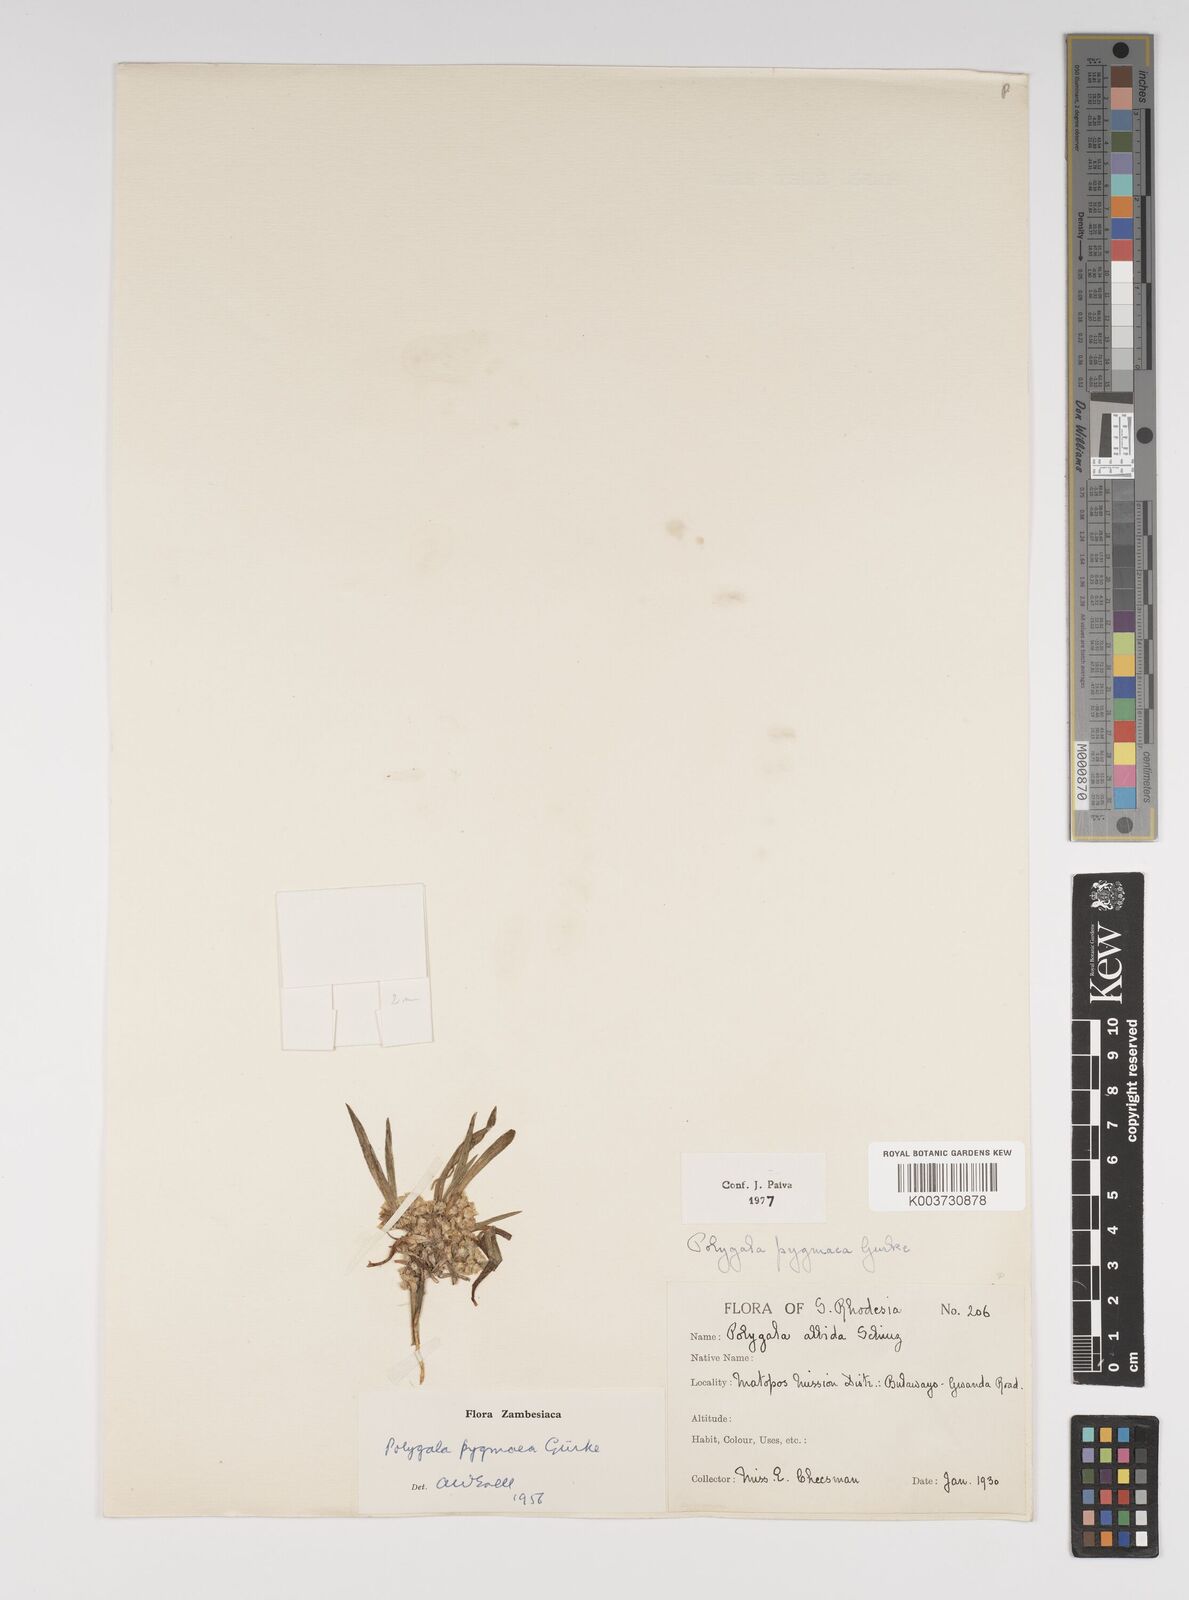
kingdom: Plantae
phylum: Tracheophyta
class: Magnoliopsida
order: Fabales
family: Polygalaceae
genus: Polygala
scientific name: Polygala welwitschii
